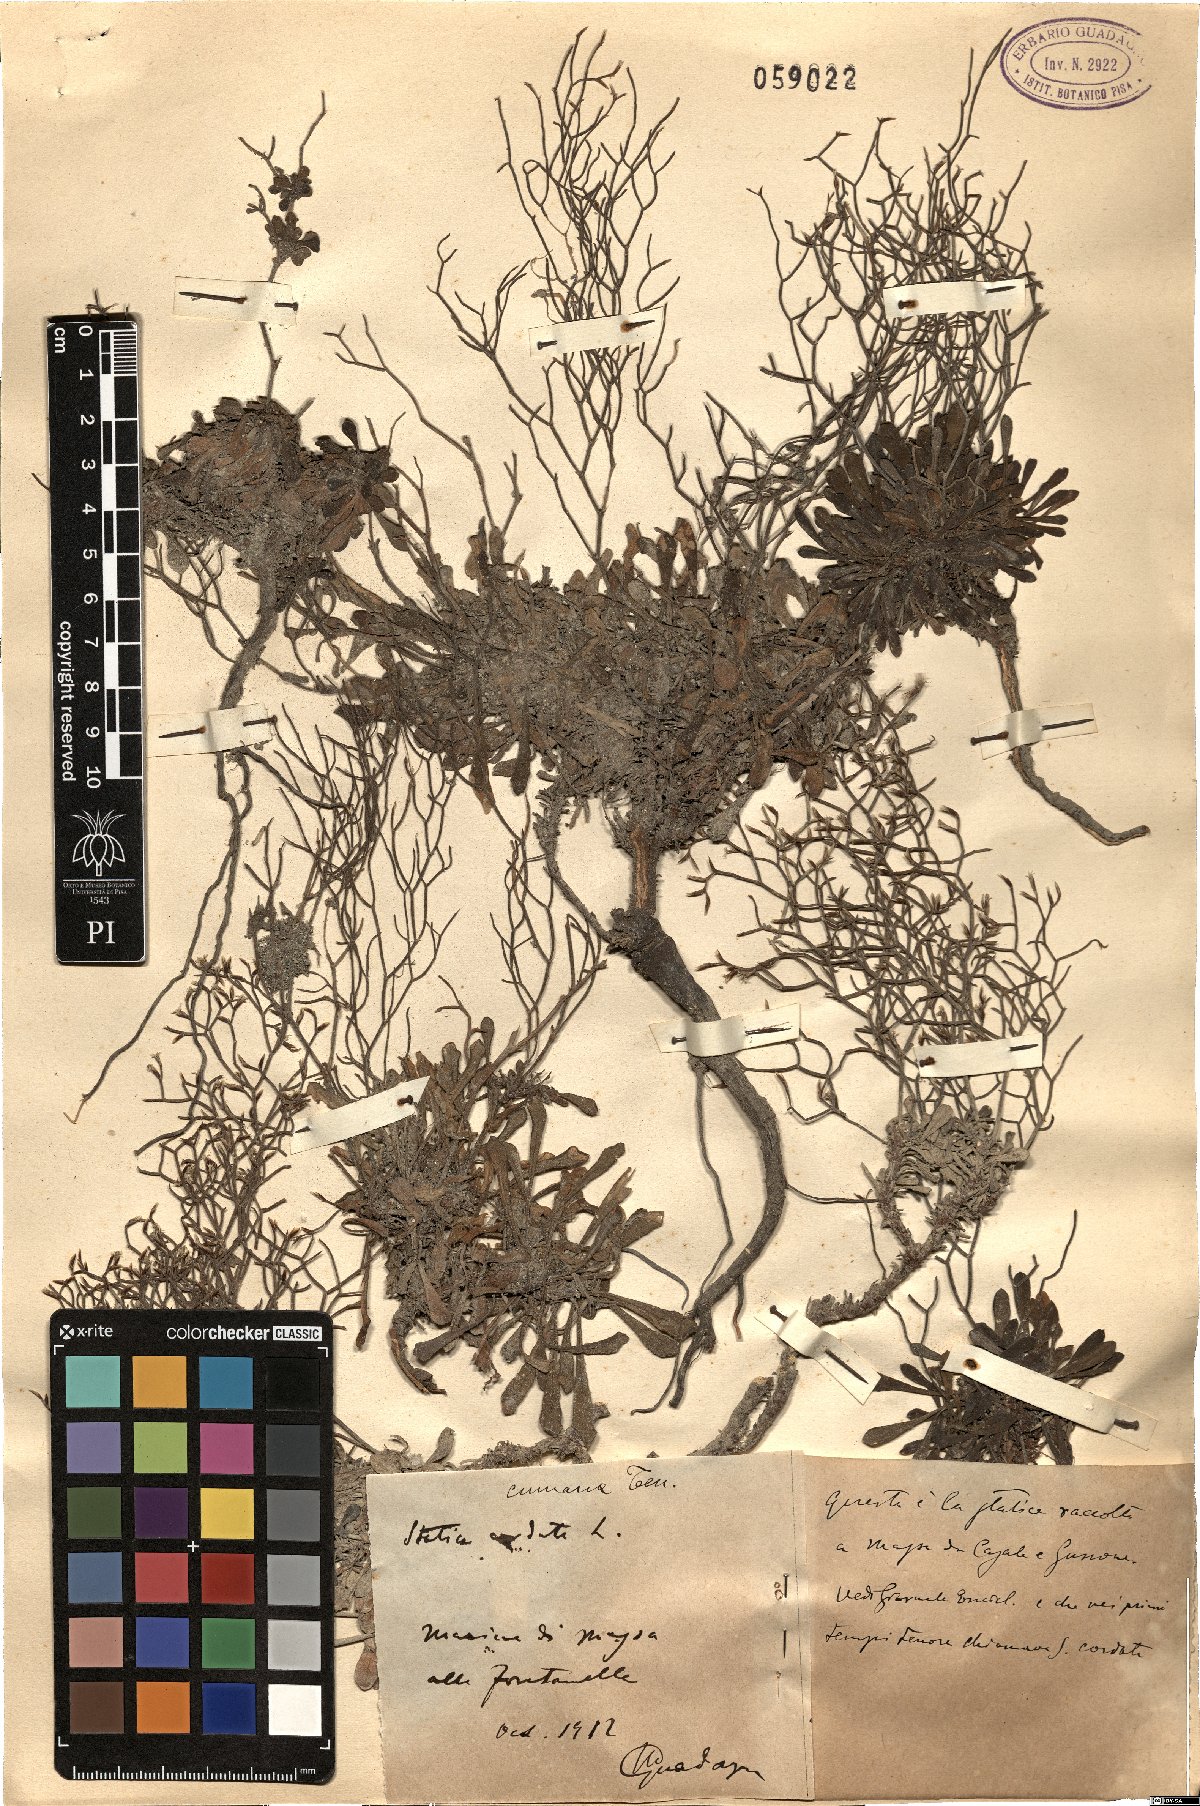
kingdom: Plantae
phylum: Tracheophyta
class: Magnoliopsida
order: Caryophyllales
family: Plumbaginaceae
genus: Limonium
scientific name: Limonium cumanum
